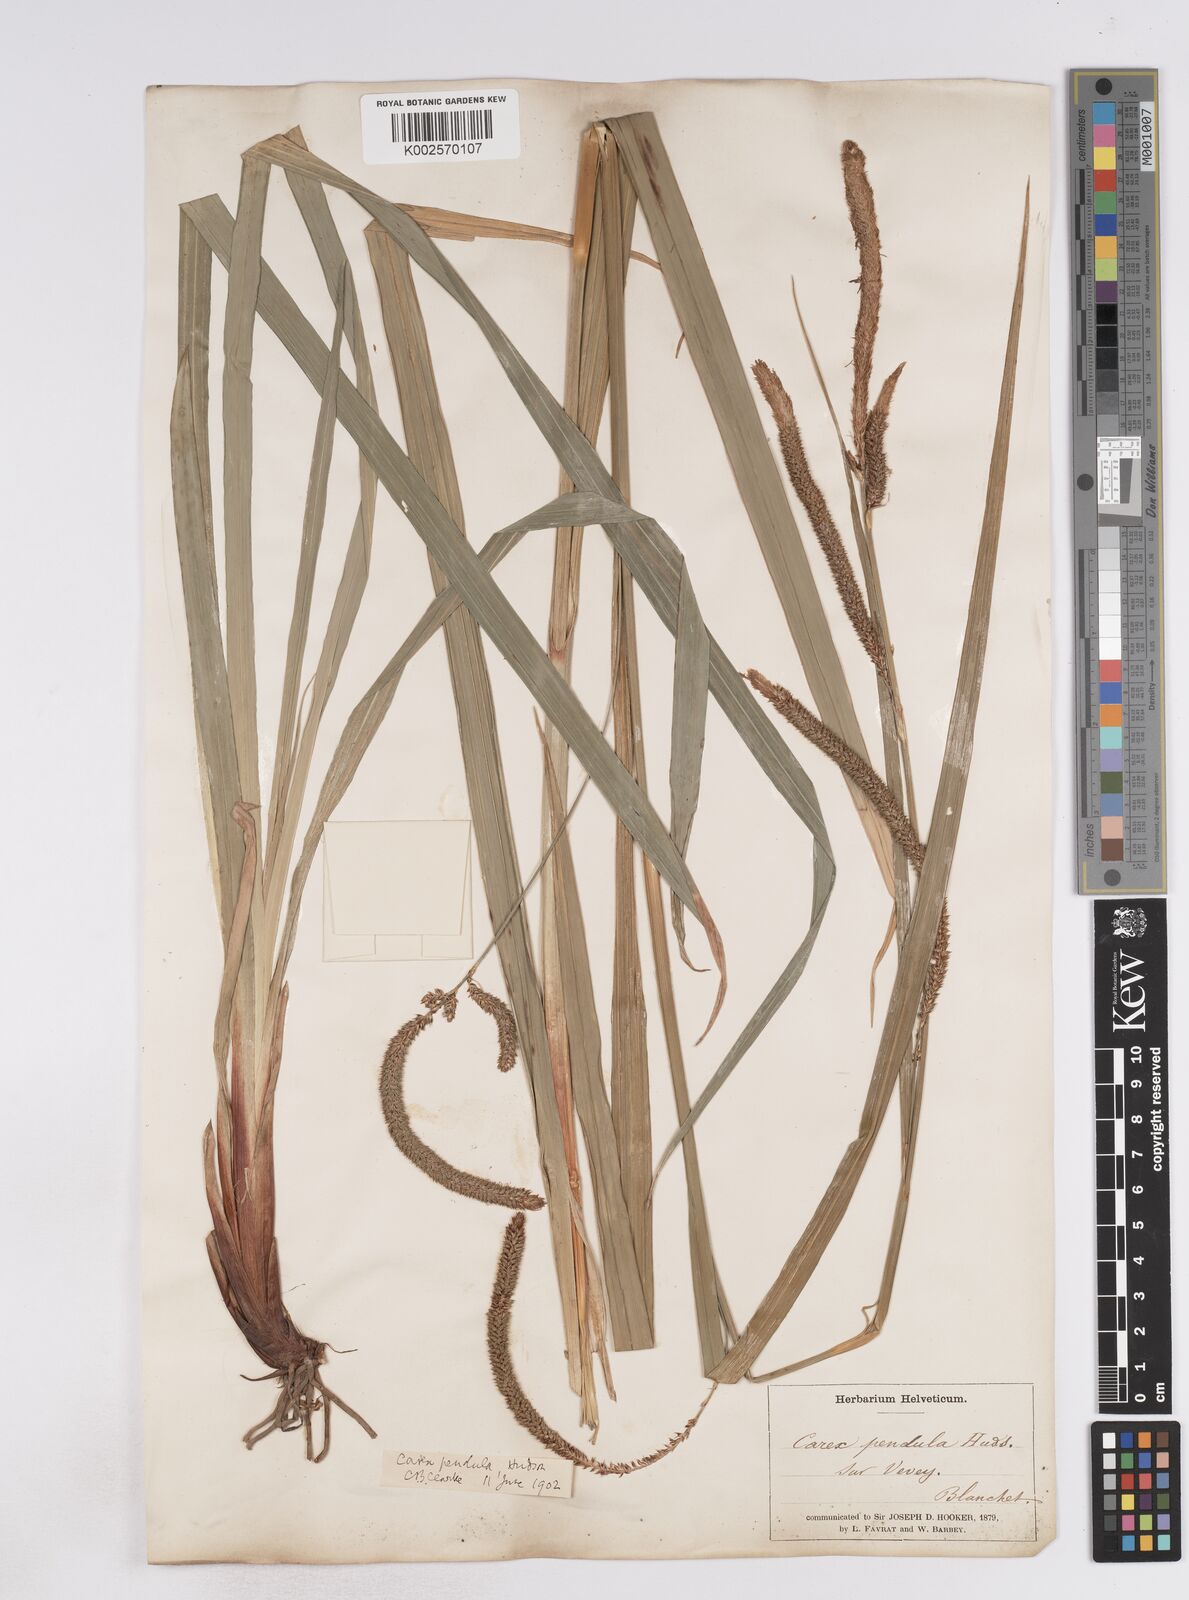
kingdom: Plantae
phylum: Tracheophyta
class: Liliopsida
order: Poales
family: Cyperaceae
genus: Carex
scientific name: Carex pendula
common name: Pendulous sedge
